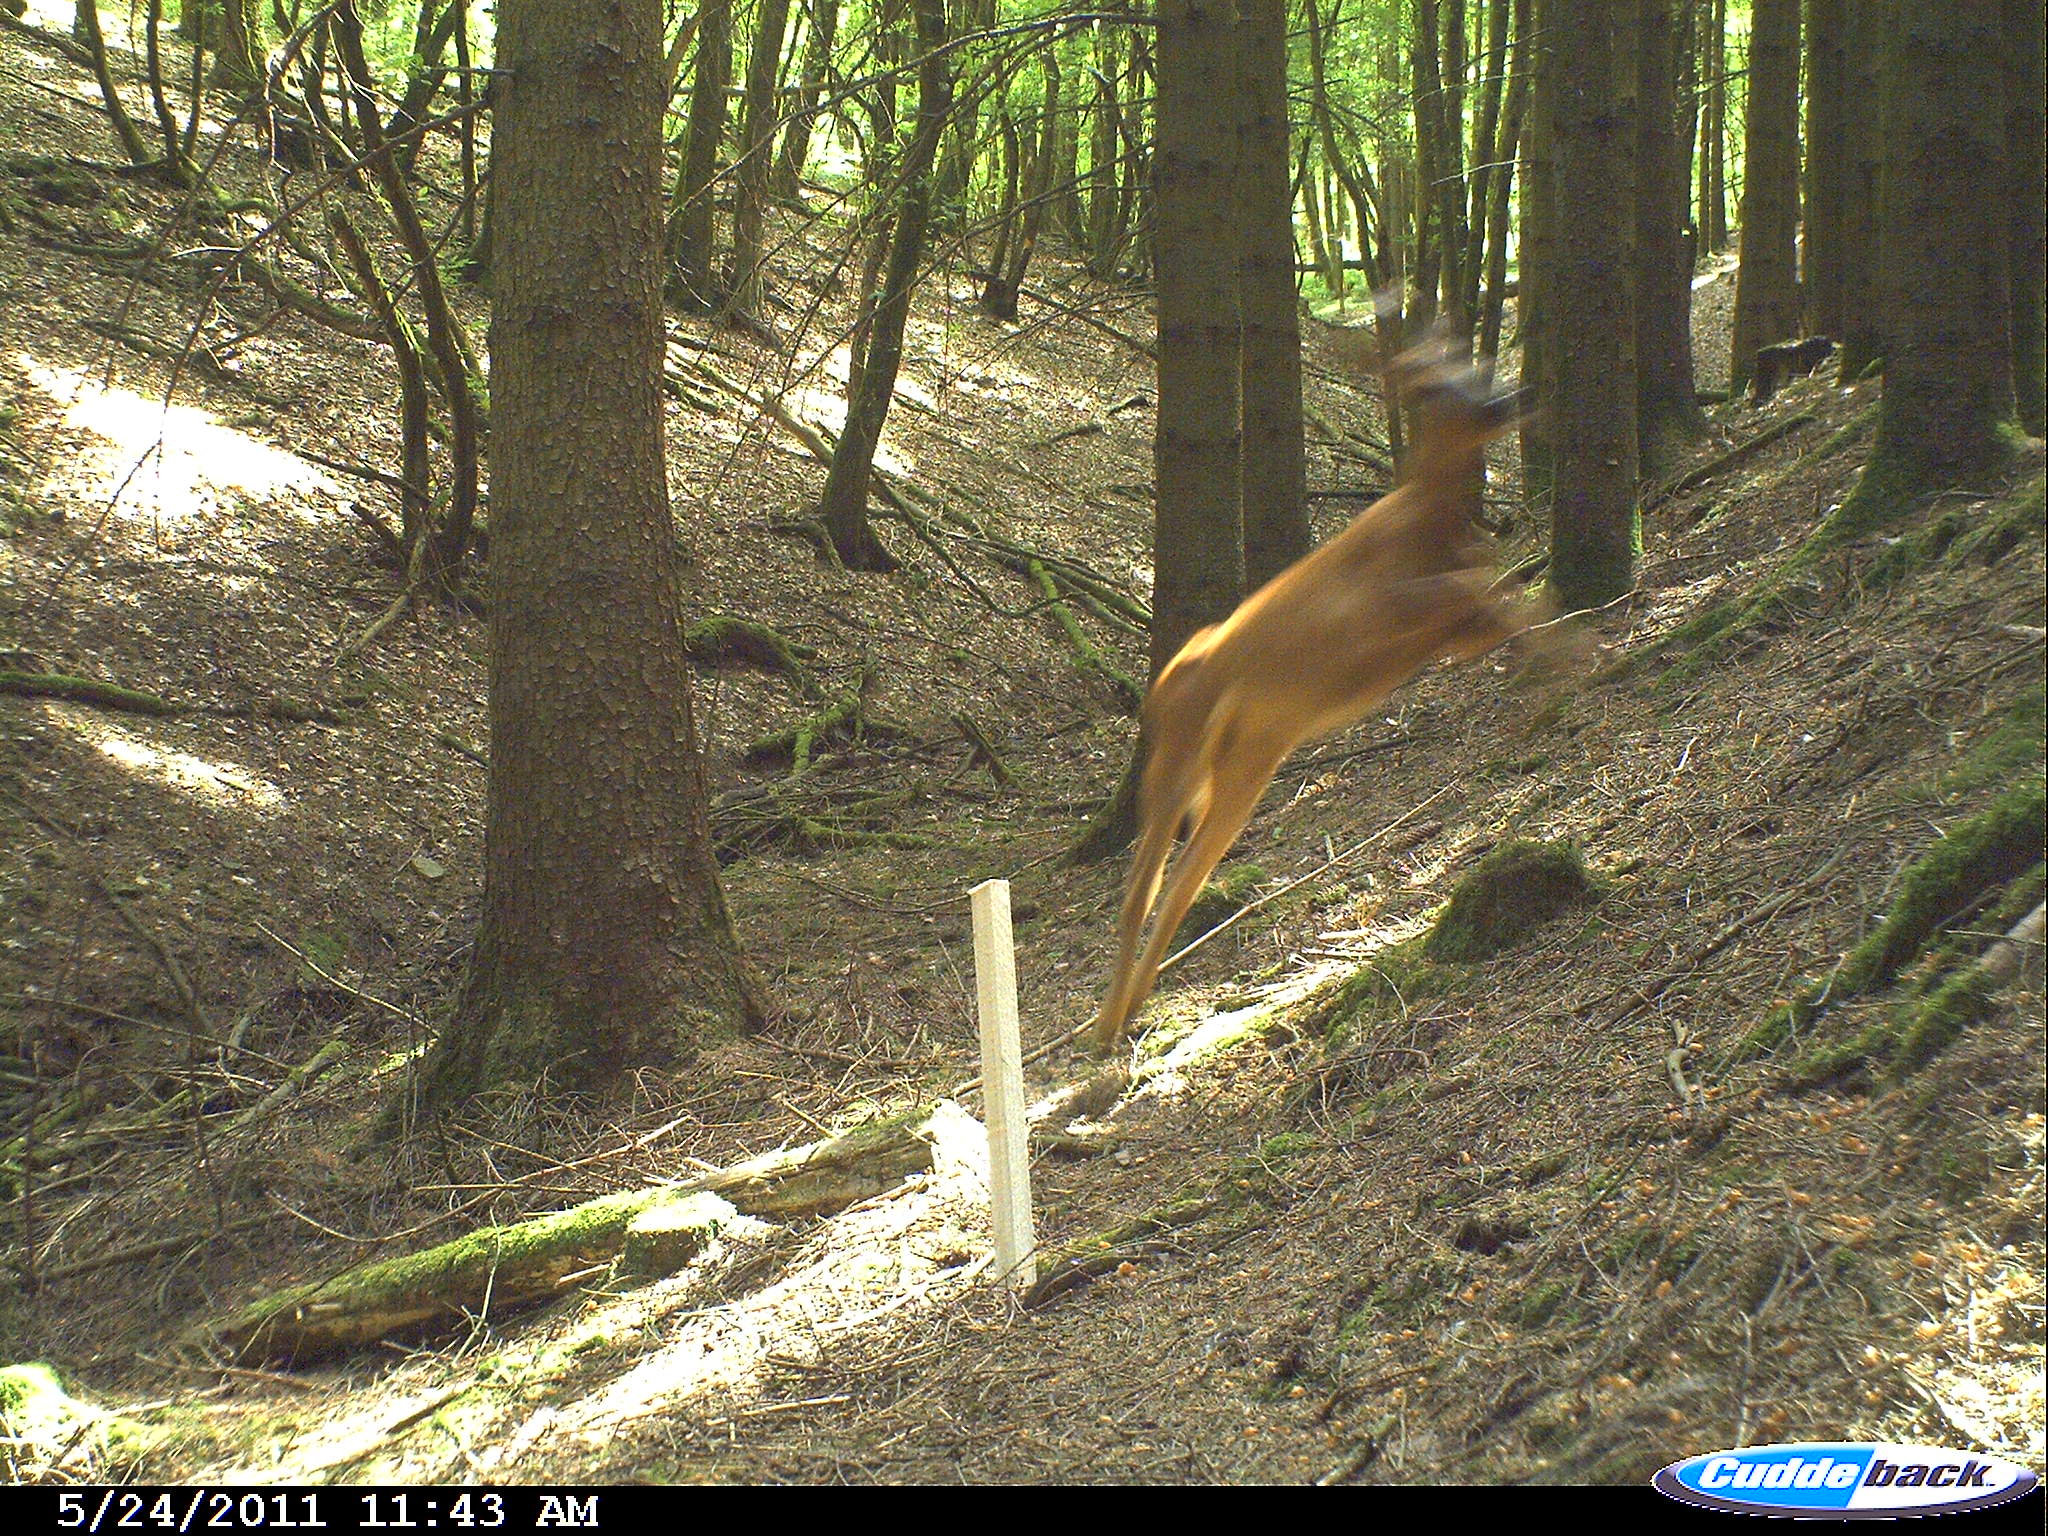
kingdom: Animalia
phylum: Chordata
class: Mammalia
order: Artiodactyla
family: Cervidae
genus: Capreolus
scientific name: Capreolus capreolus
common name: Western roe deer
